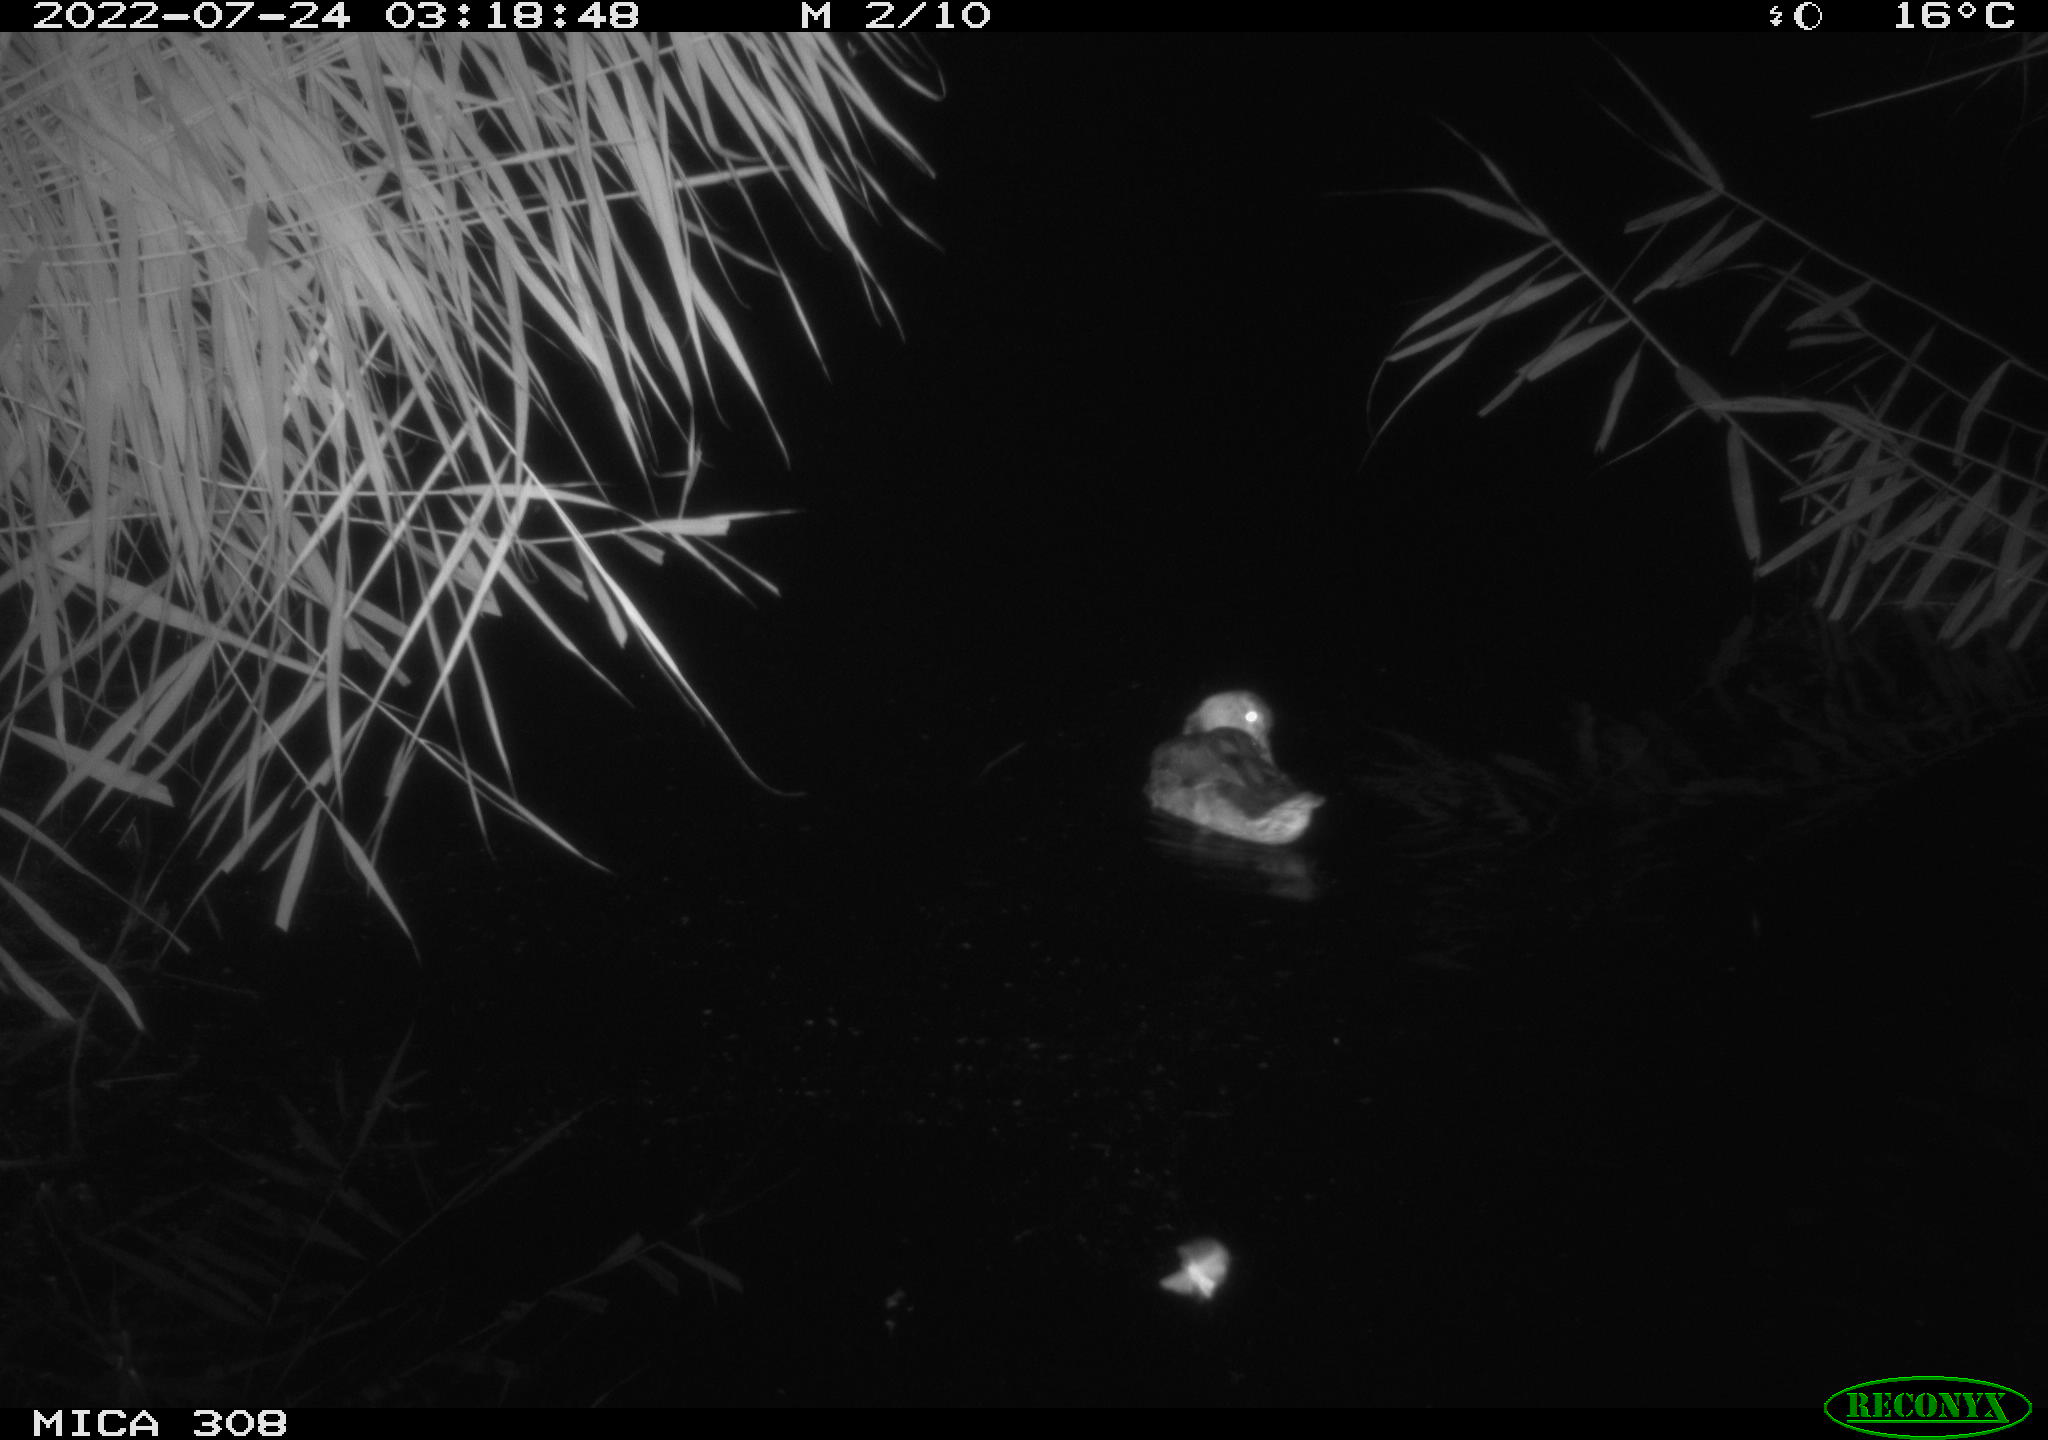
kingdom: Animalia
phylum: Chordata
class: Aves
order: Gruiformes
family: Rallidae
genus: Gallinula
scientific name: Gallinula chloropus
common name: Common moorhen
